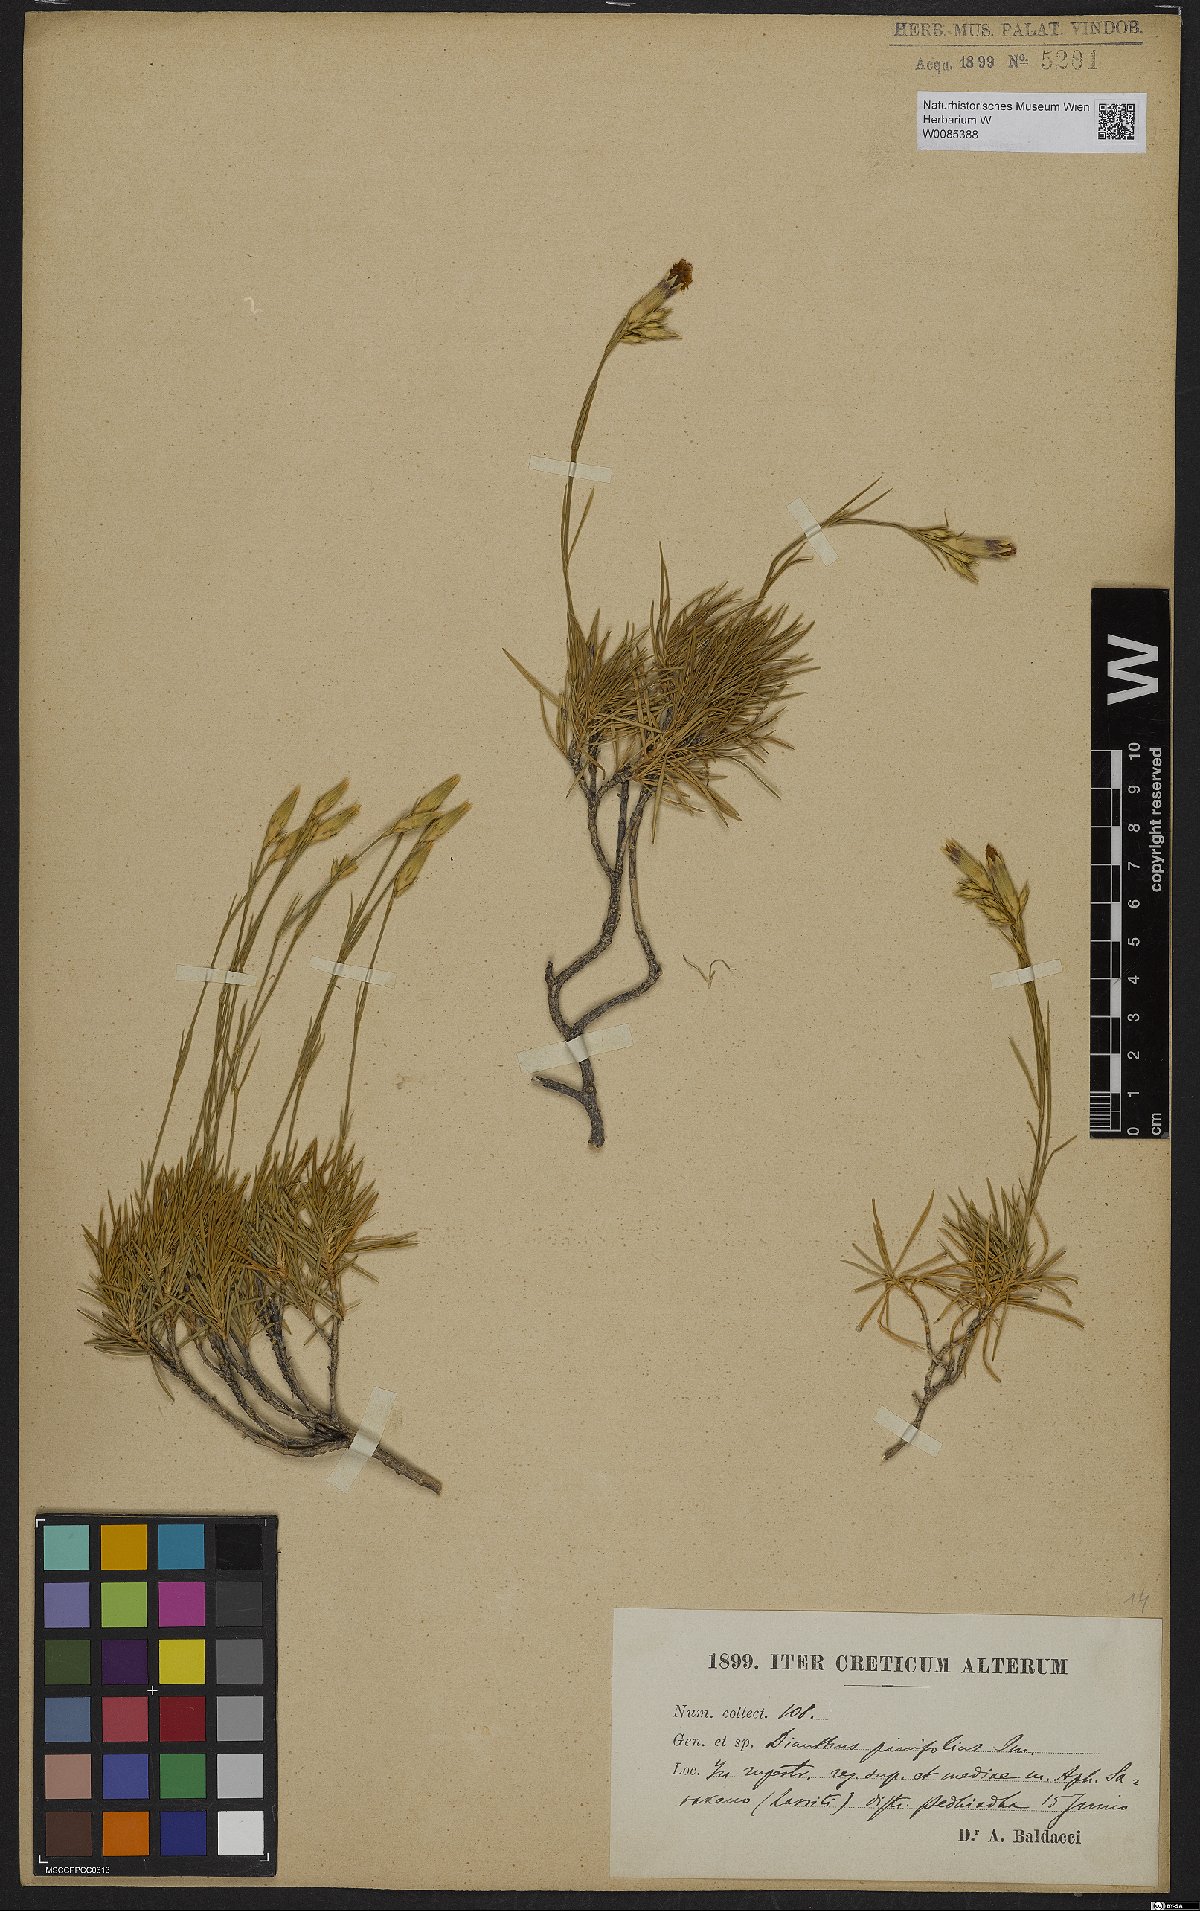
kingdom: Plantae
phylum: Tracheophyta
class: Magnoliopsida
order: Caryophyllales
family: Caryophyllaceae
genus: Dianthus
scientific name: Dianthus pinifolius
